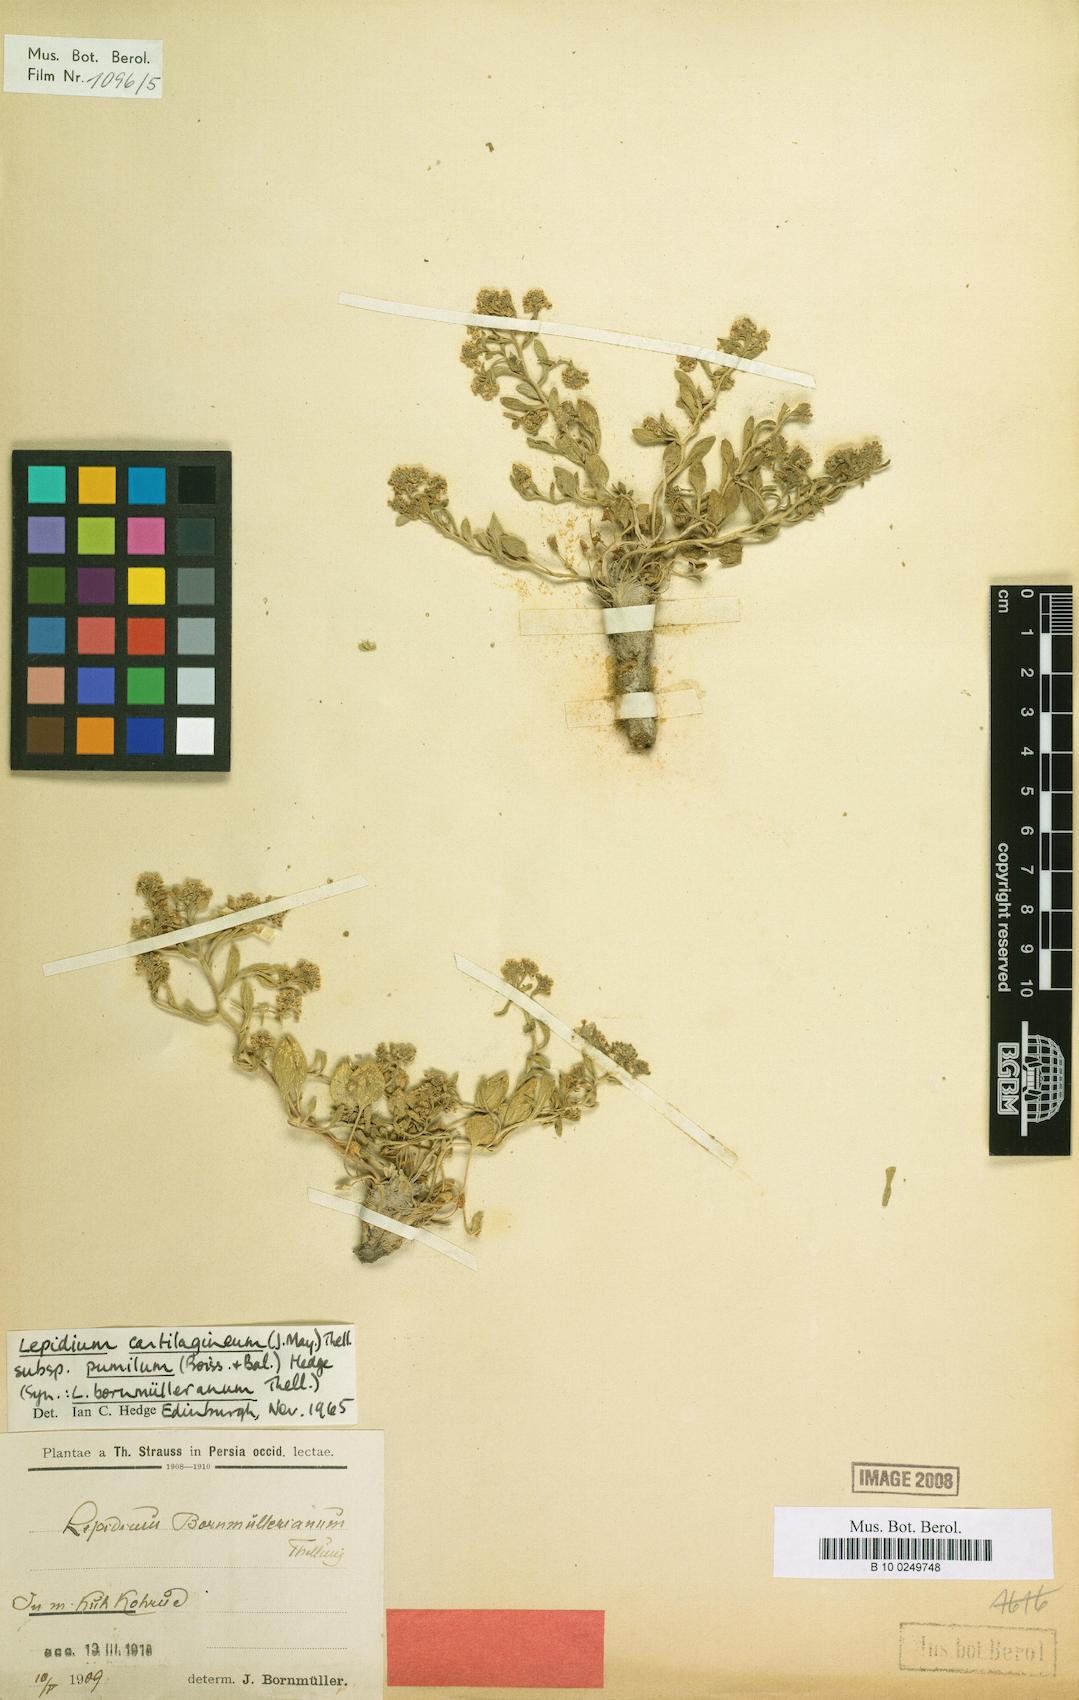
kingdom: Plantae
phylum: Tracheophyta
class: Magnoliopsida
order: Brassicales
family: Brassicaceae
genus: Lepidium
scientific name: Lepidium cartilagineum
